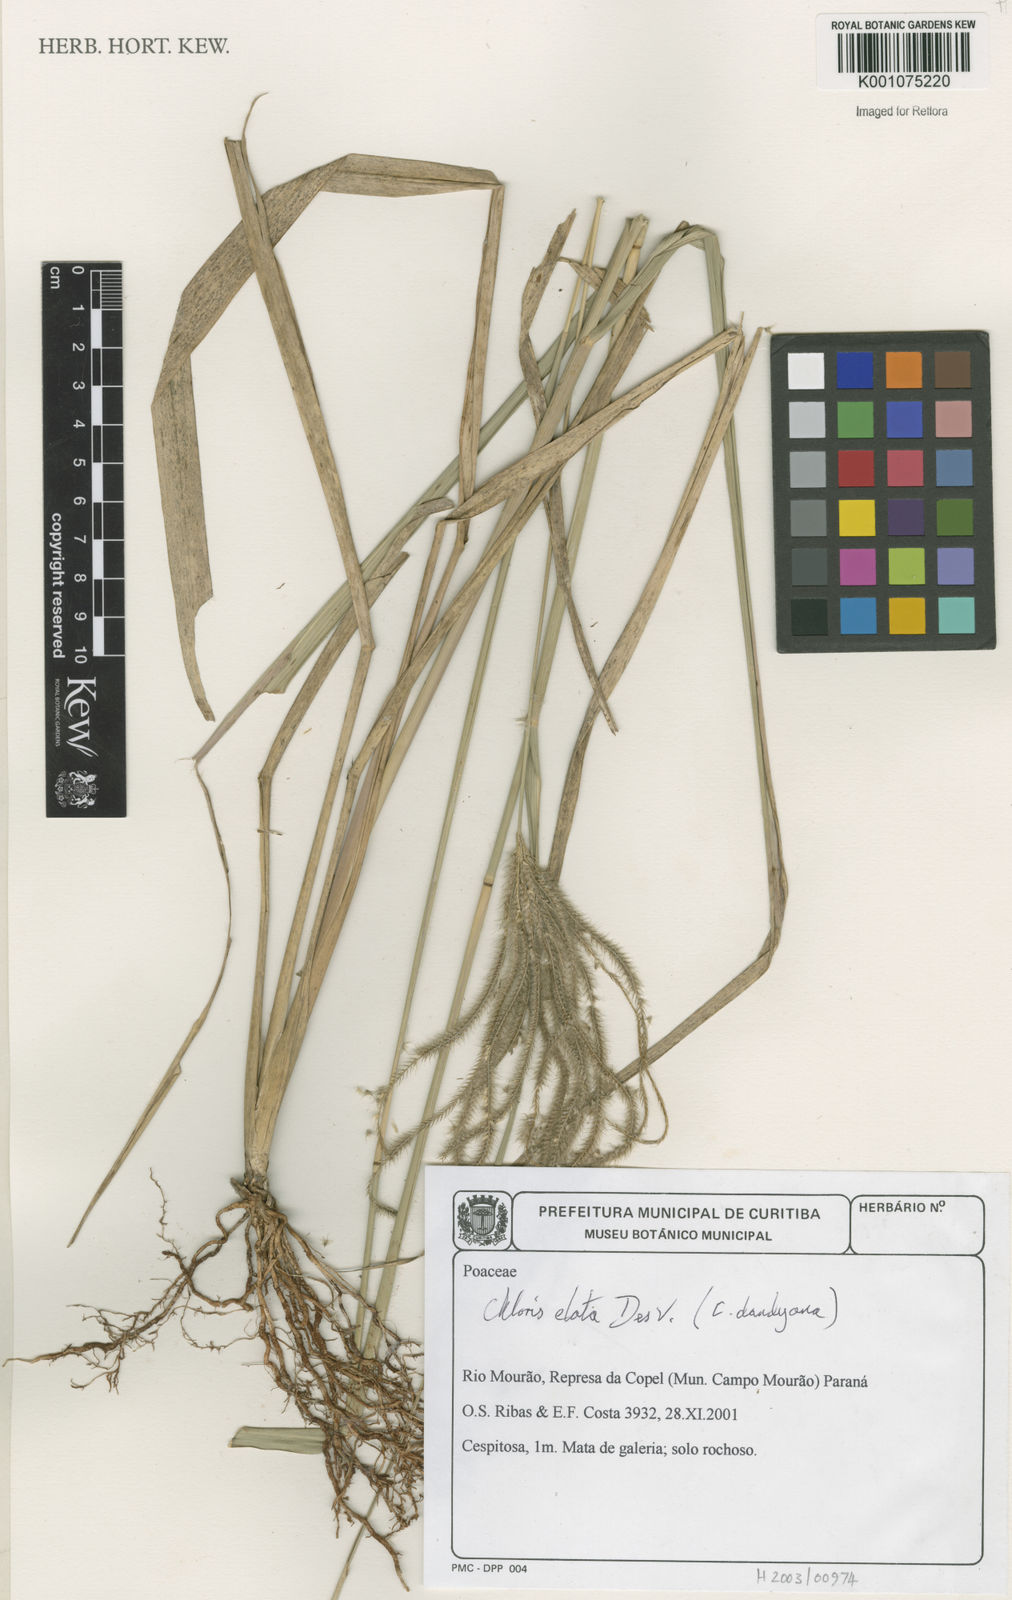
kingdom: Plantae
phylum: Tracheophyta
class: Liliopsida
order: Poales
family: Poaceae
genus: Stapfochloa
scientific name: Stapfochloa elata
